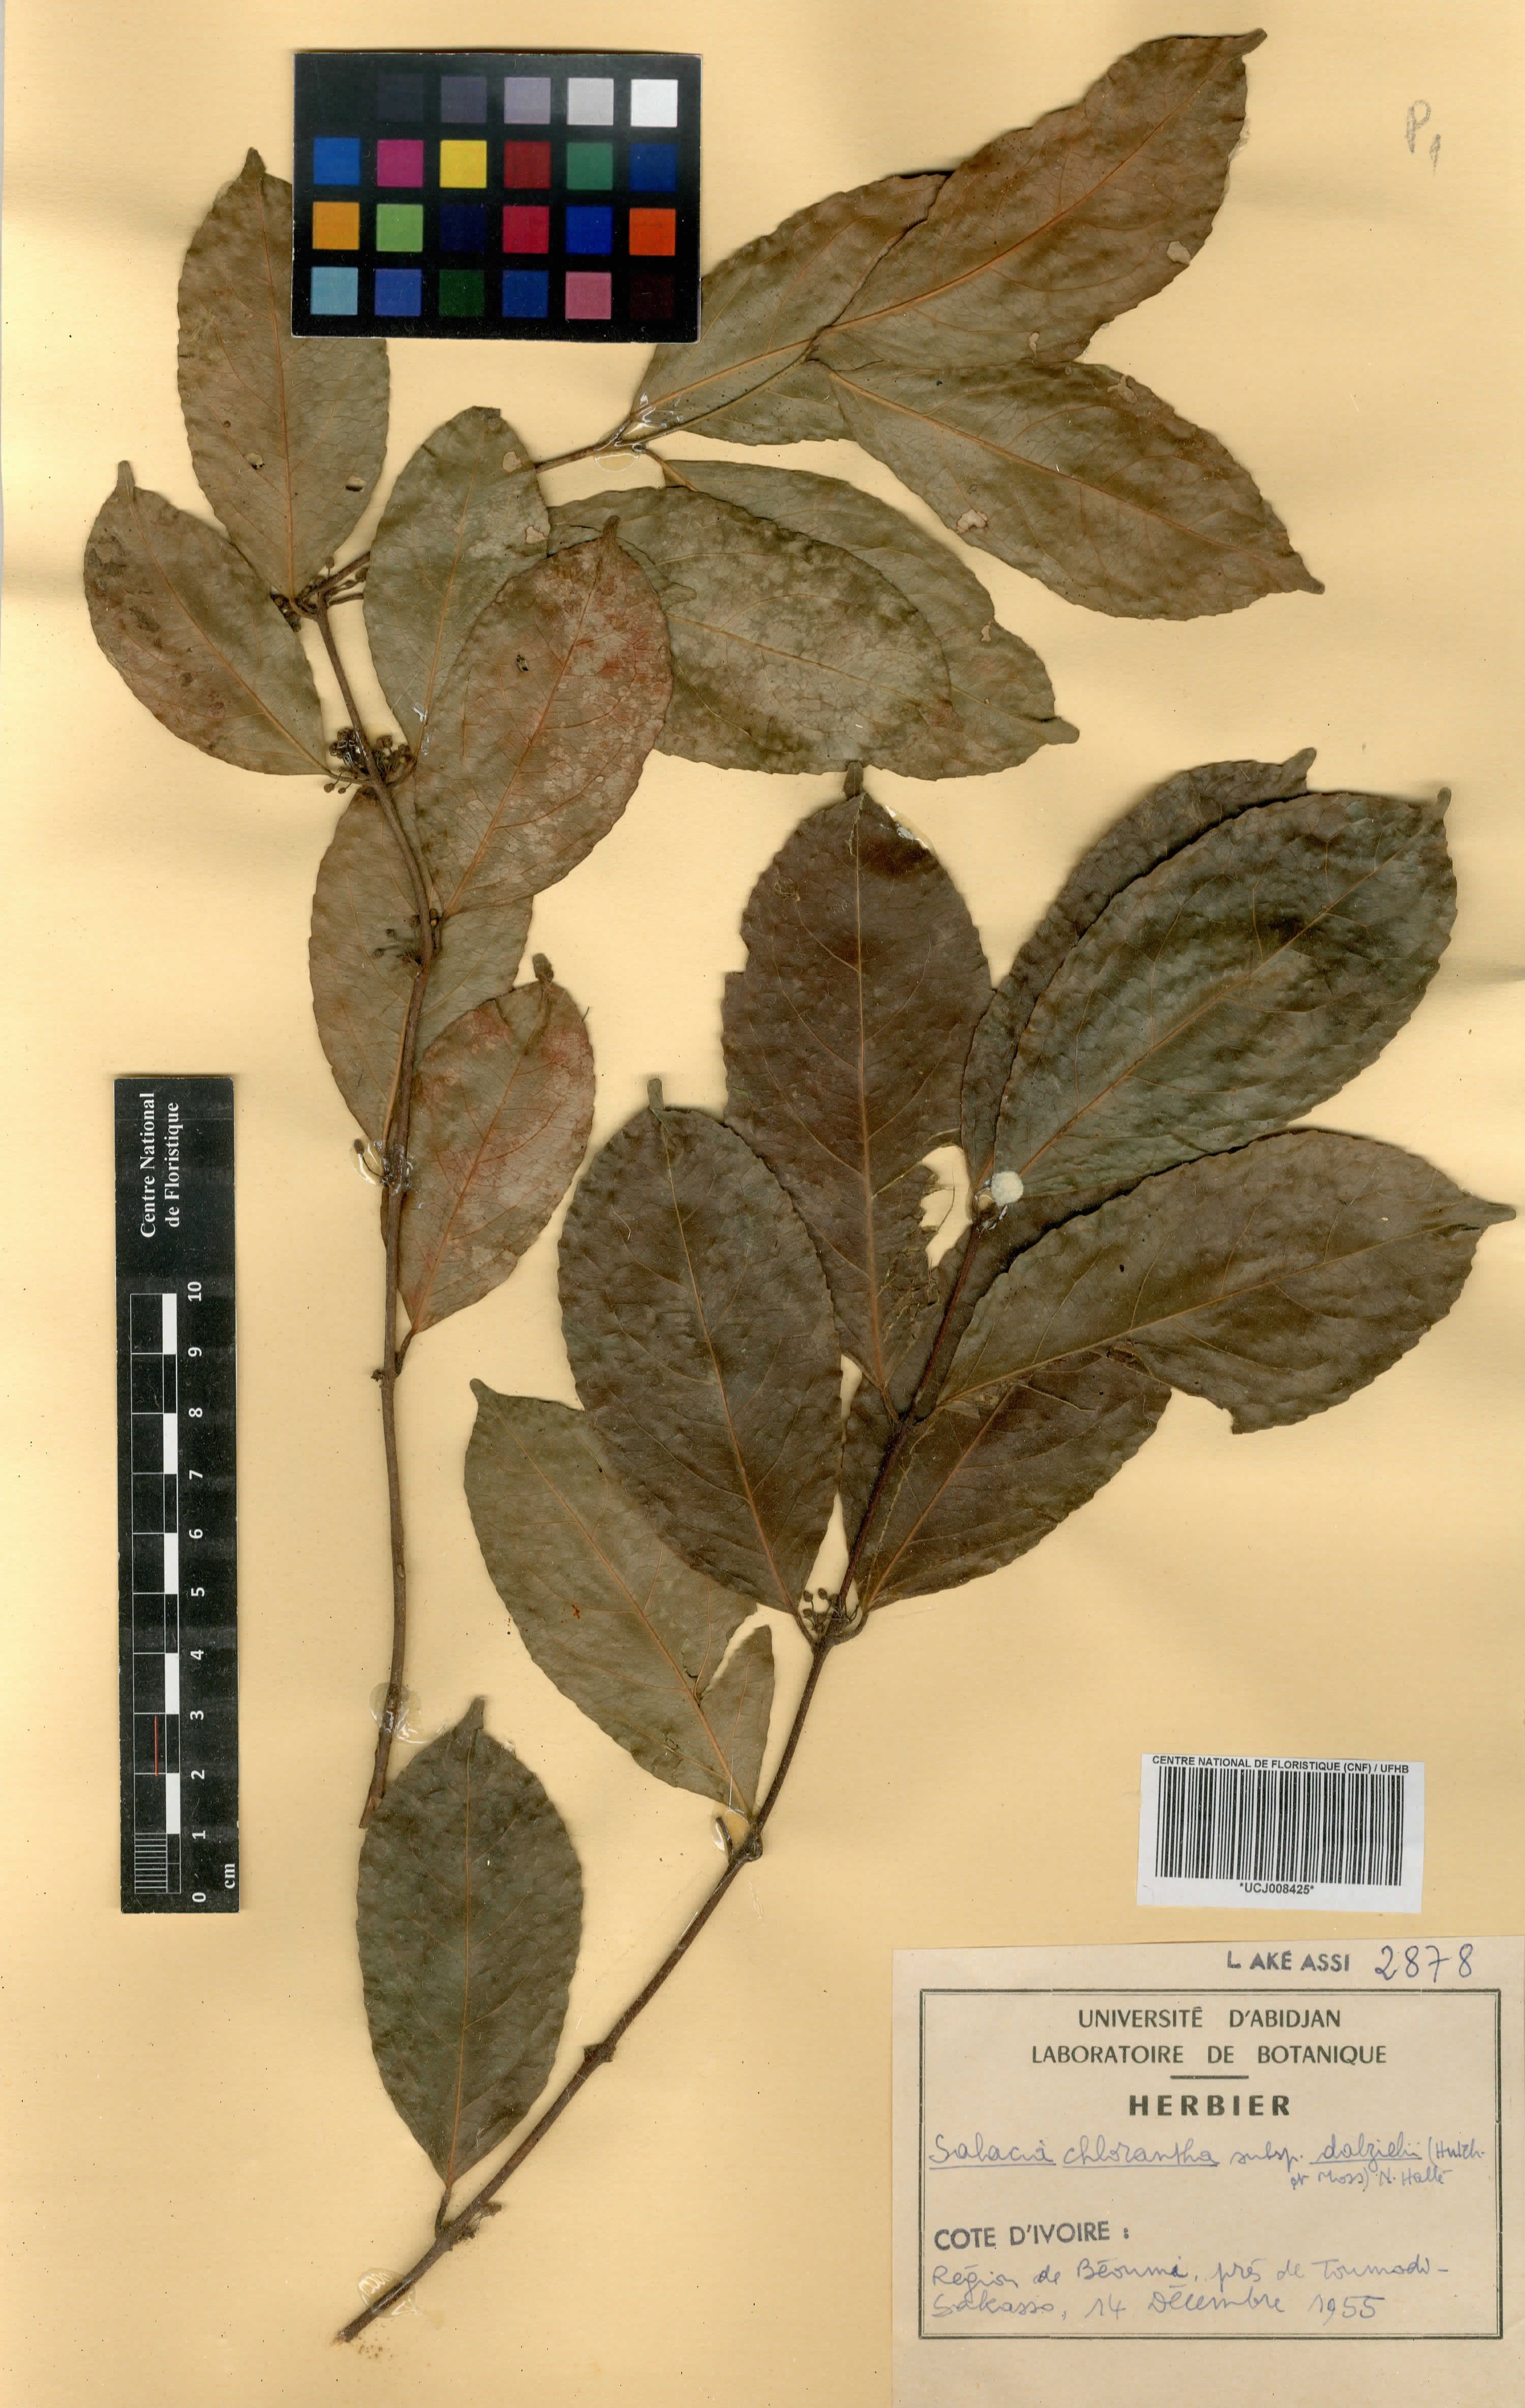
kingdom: Plantae
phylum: Tracheophyta
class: Magnoliopsida
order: Celastrales
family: Celastraceae
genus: Salacia
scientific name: Salacia chlorantha
